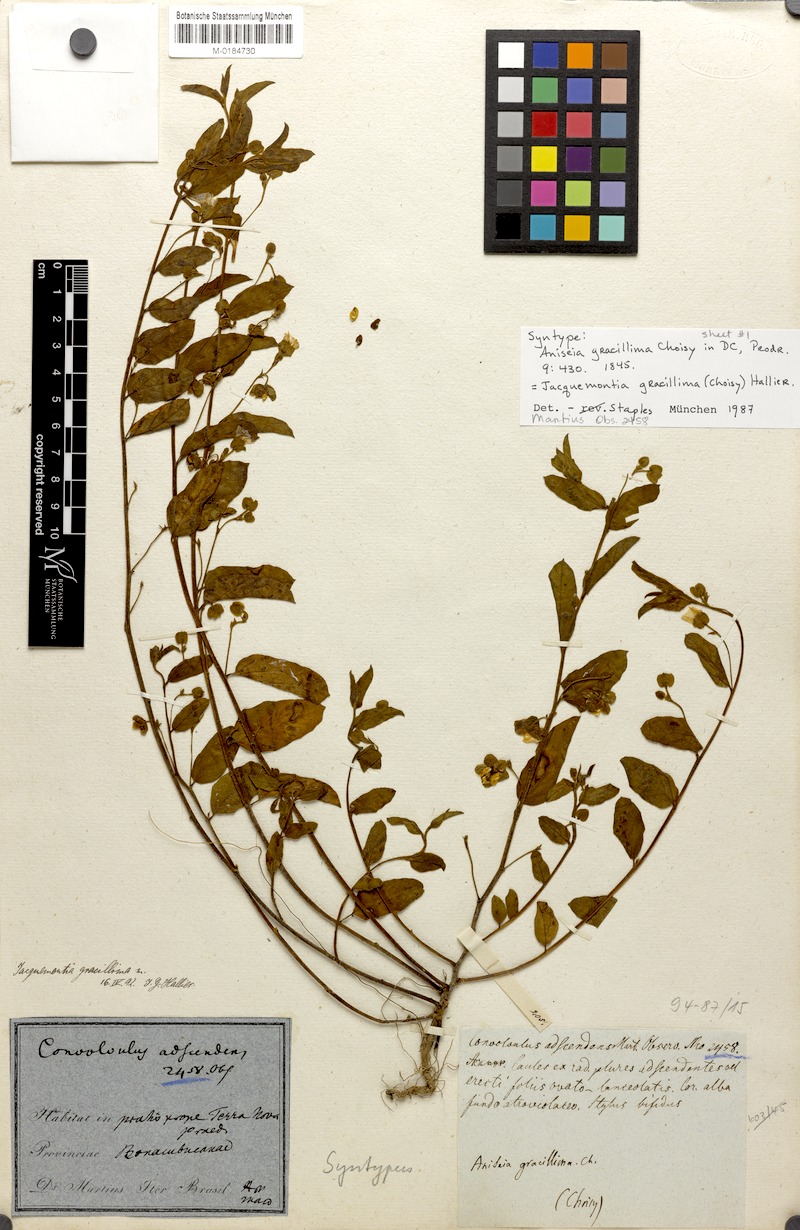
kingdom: Plantae
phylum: Tracheophyta
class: Magnoliopsida
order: Solanales
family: Convolvulaceae
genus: Jacquemontia
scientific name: Jacquemontia gracillima
